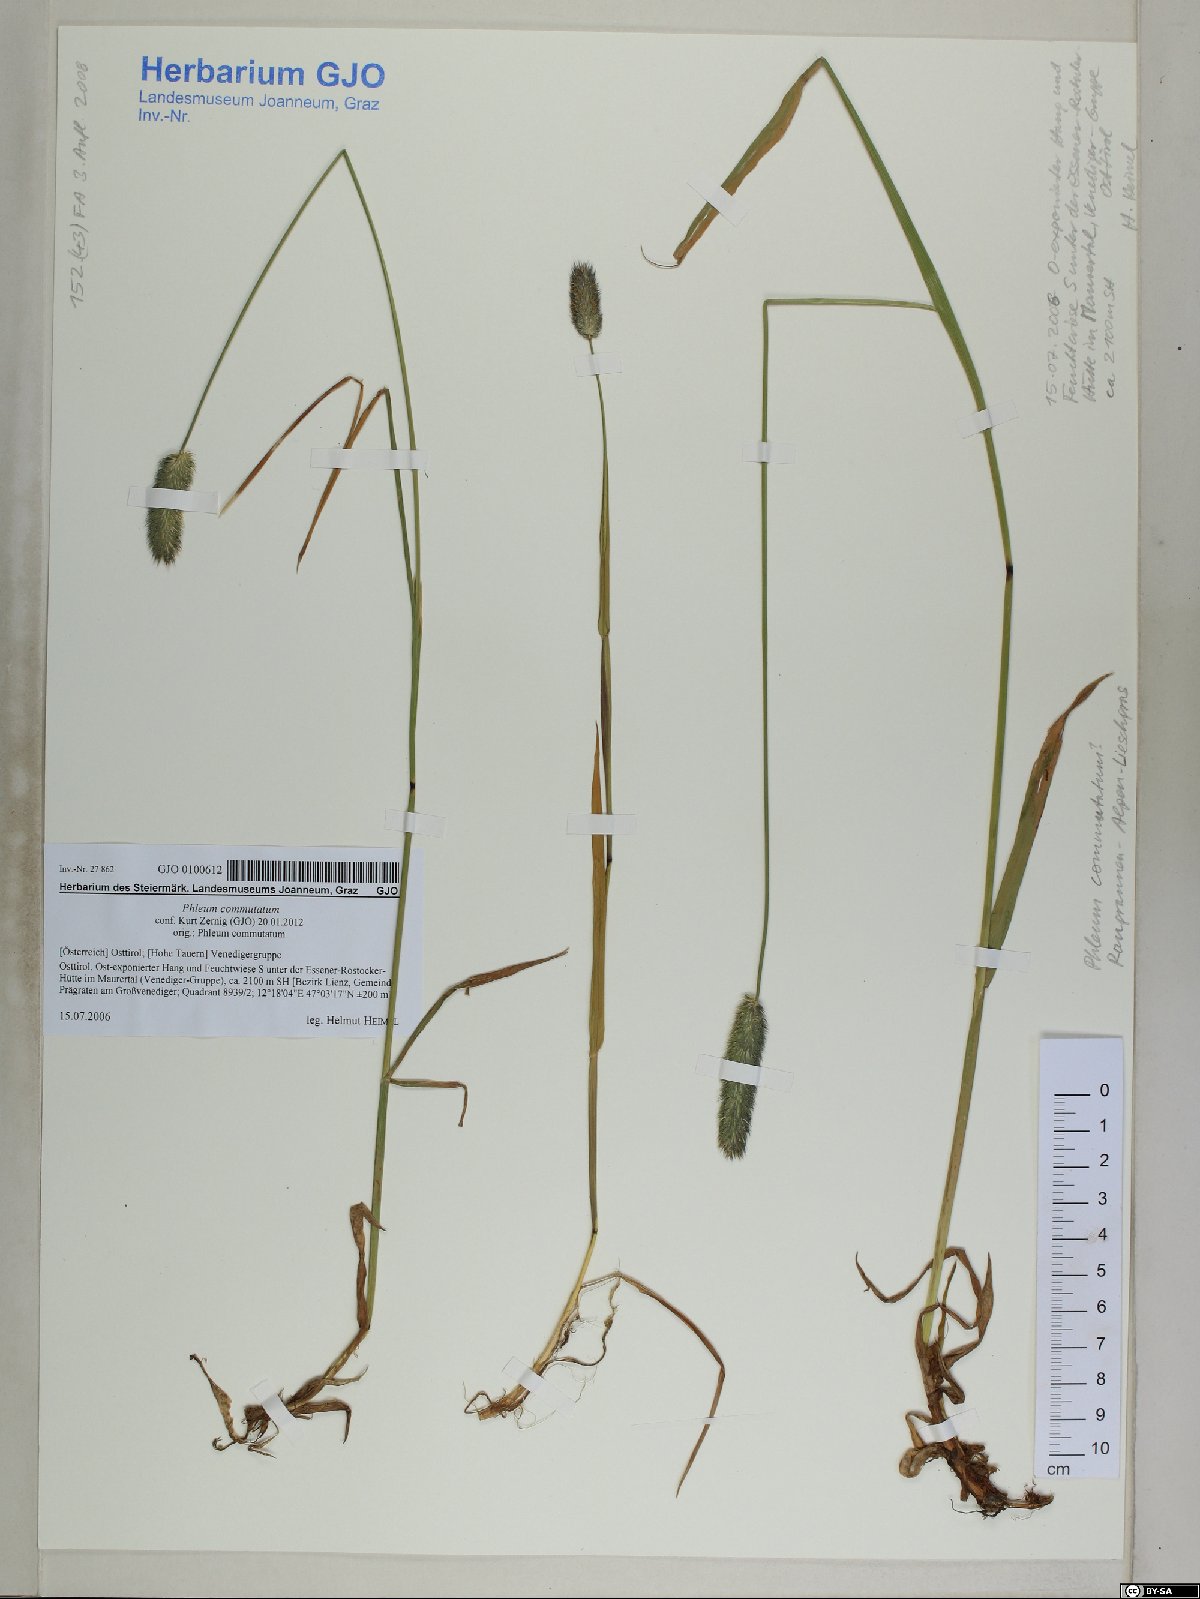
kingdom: Plantae
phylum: Tracheophyta
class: Liliopsida
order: Poales
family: Poaceae
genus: Phleum
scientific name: Phleum alpinum
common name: Alpine cat's-tail
